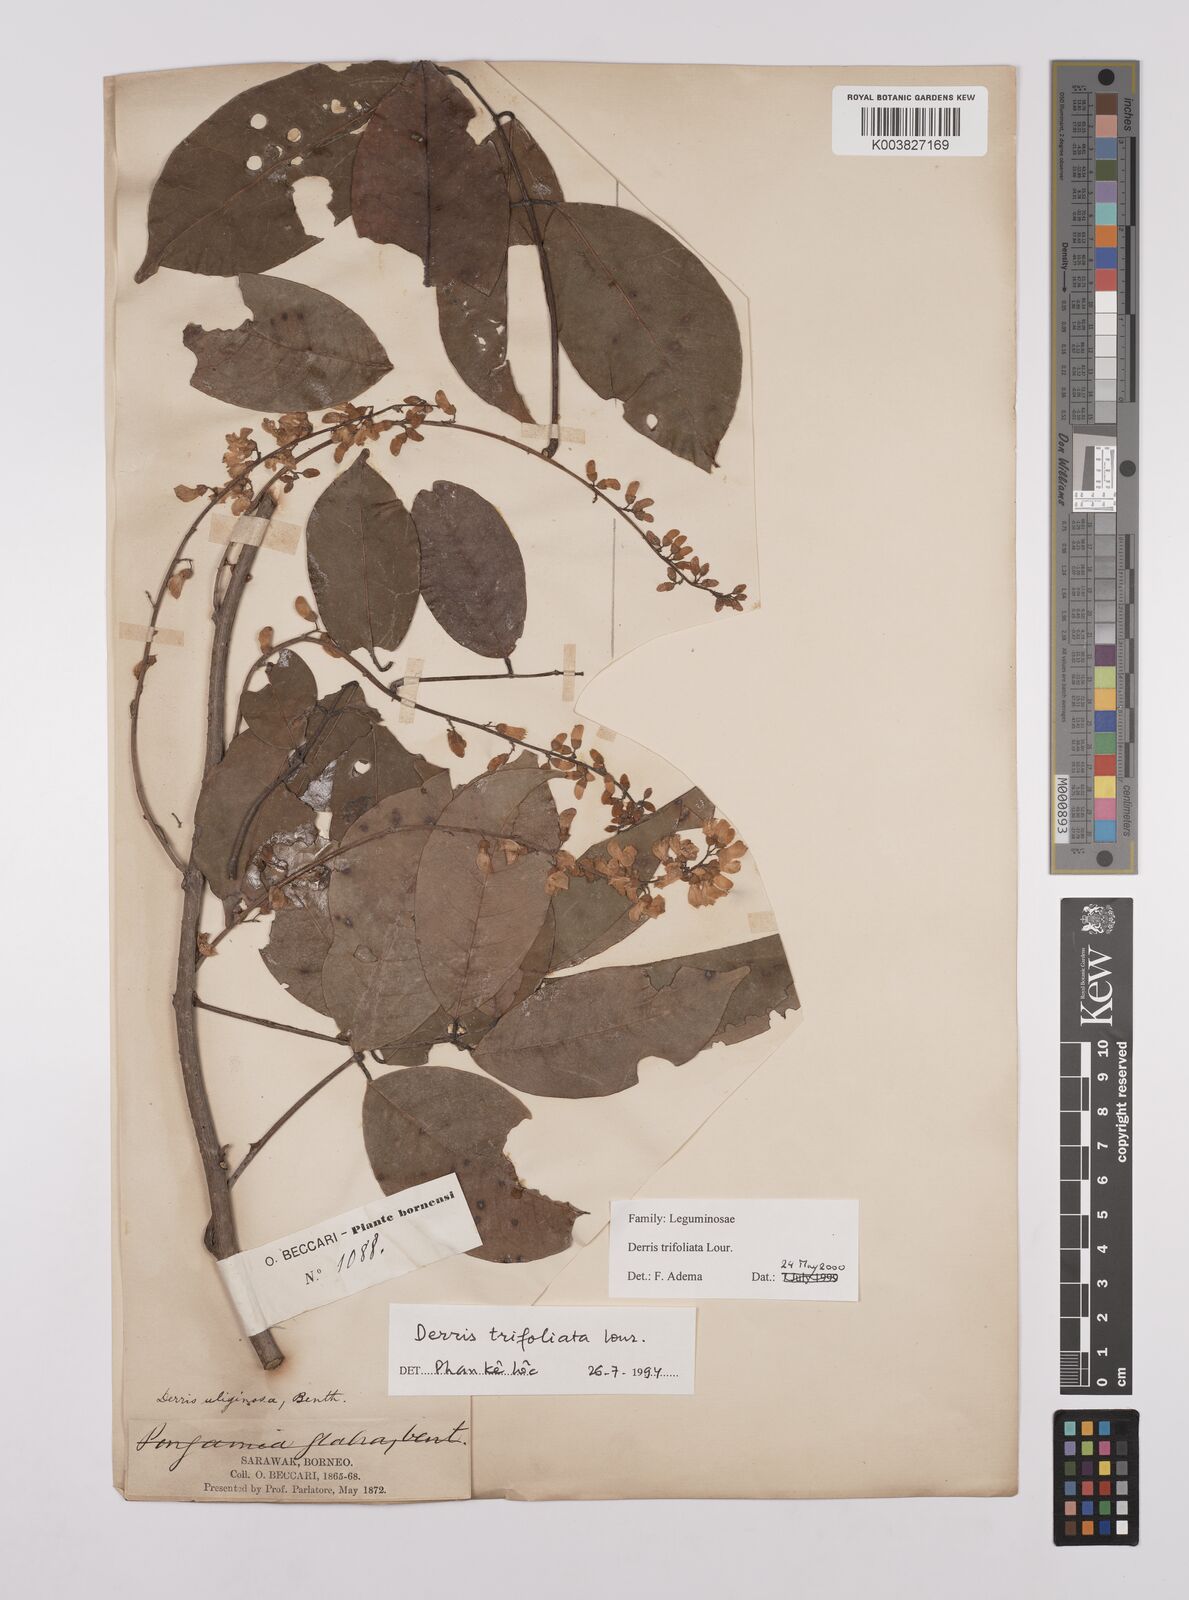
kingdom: Plantae
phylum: Tracheophyta
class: Magnoliopsida
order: Fabales
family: Fabaceae
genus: Derris
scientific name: Derris trifoliata
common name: Three-leaf derris
